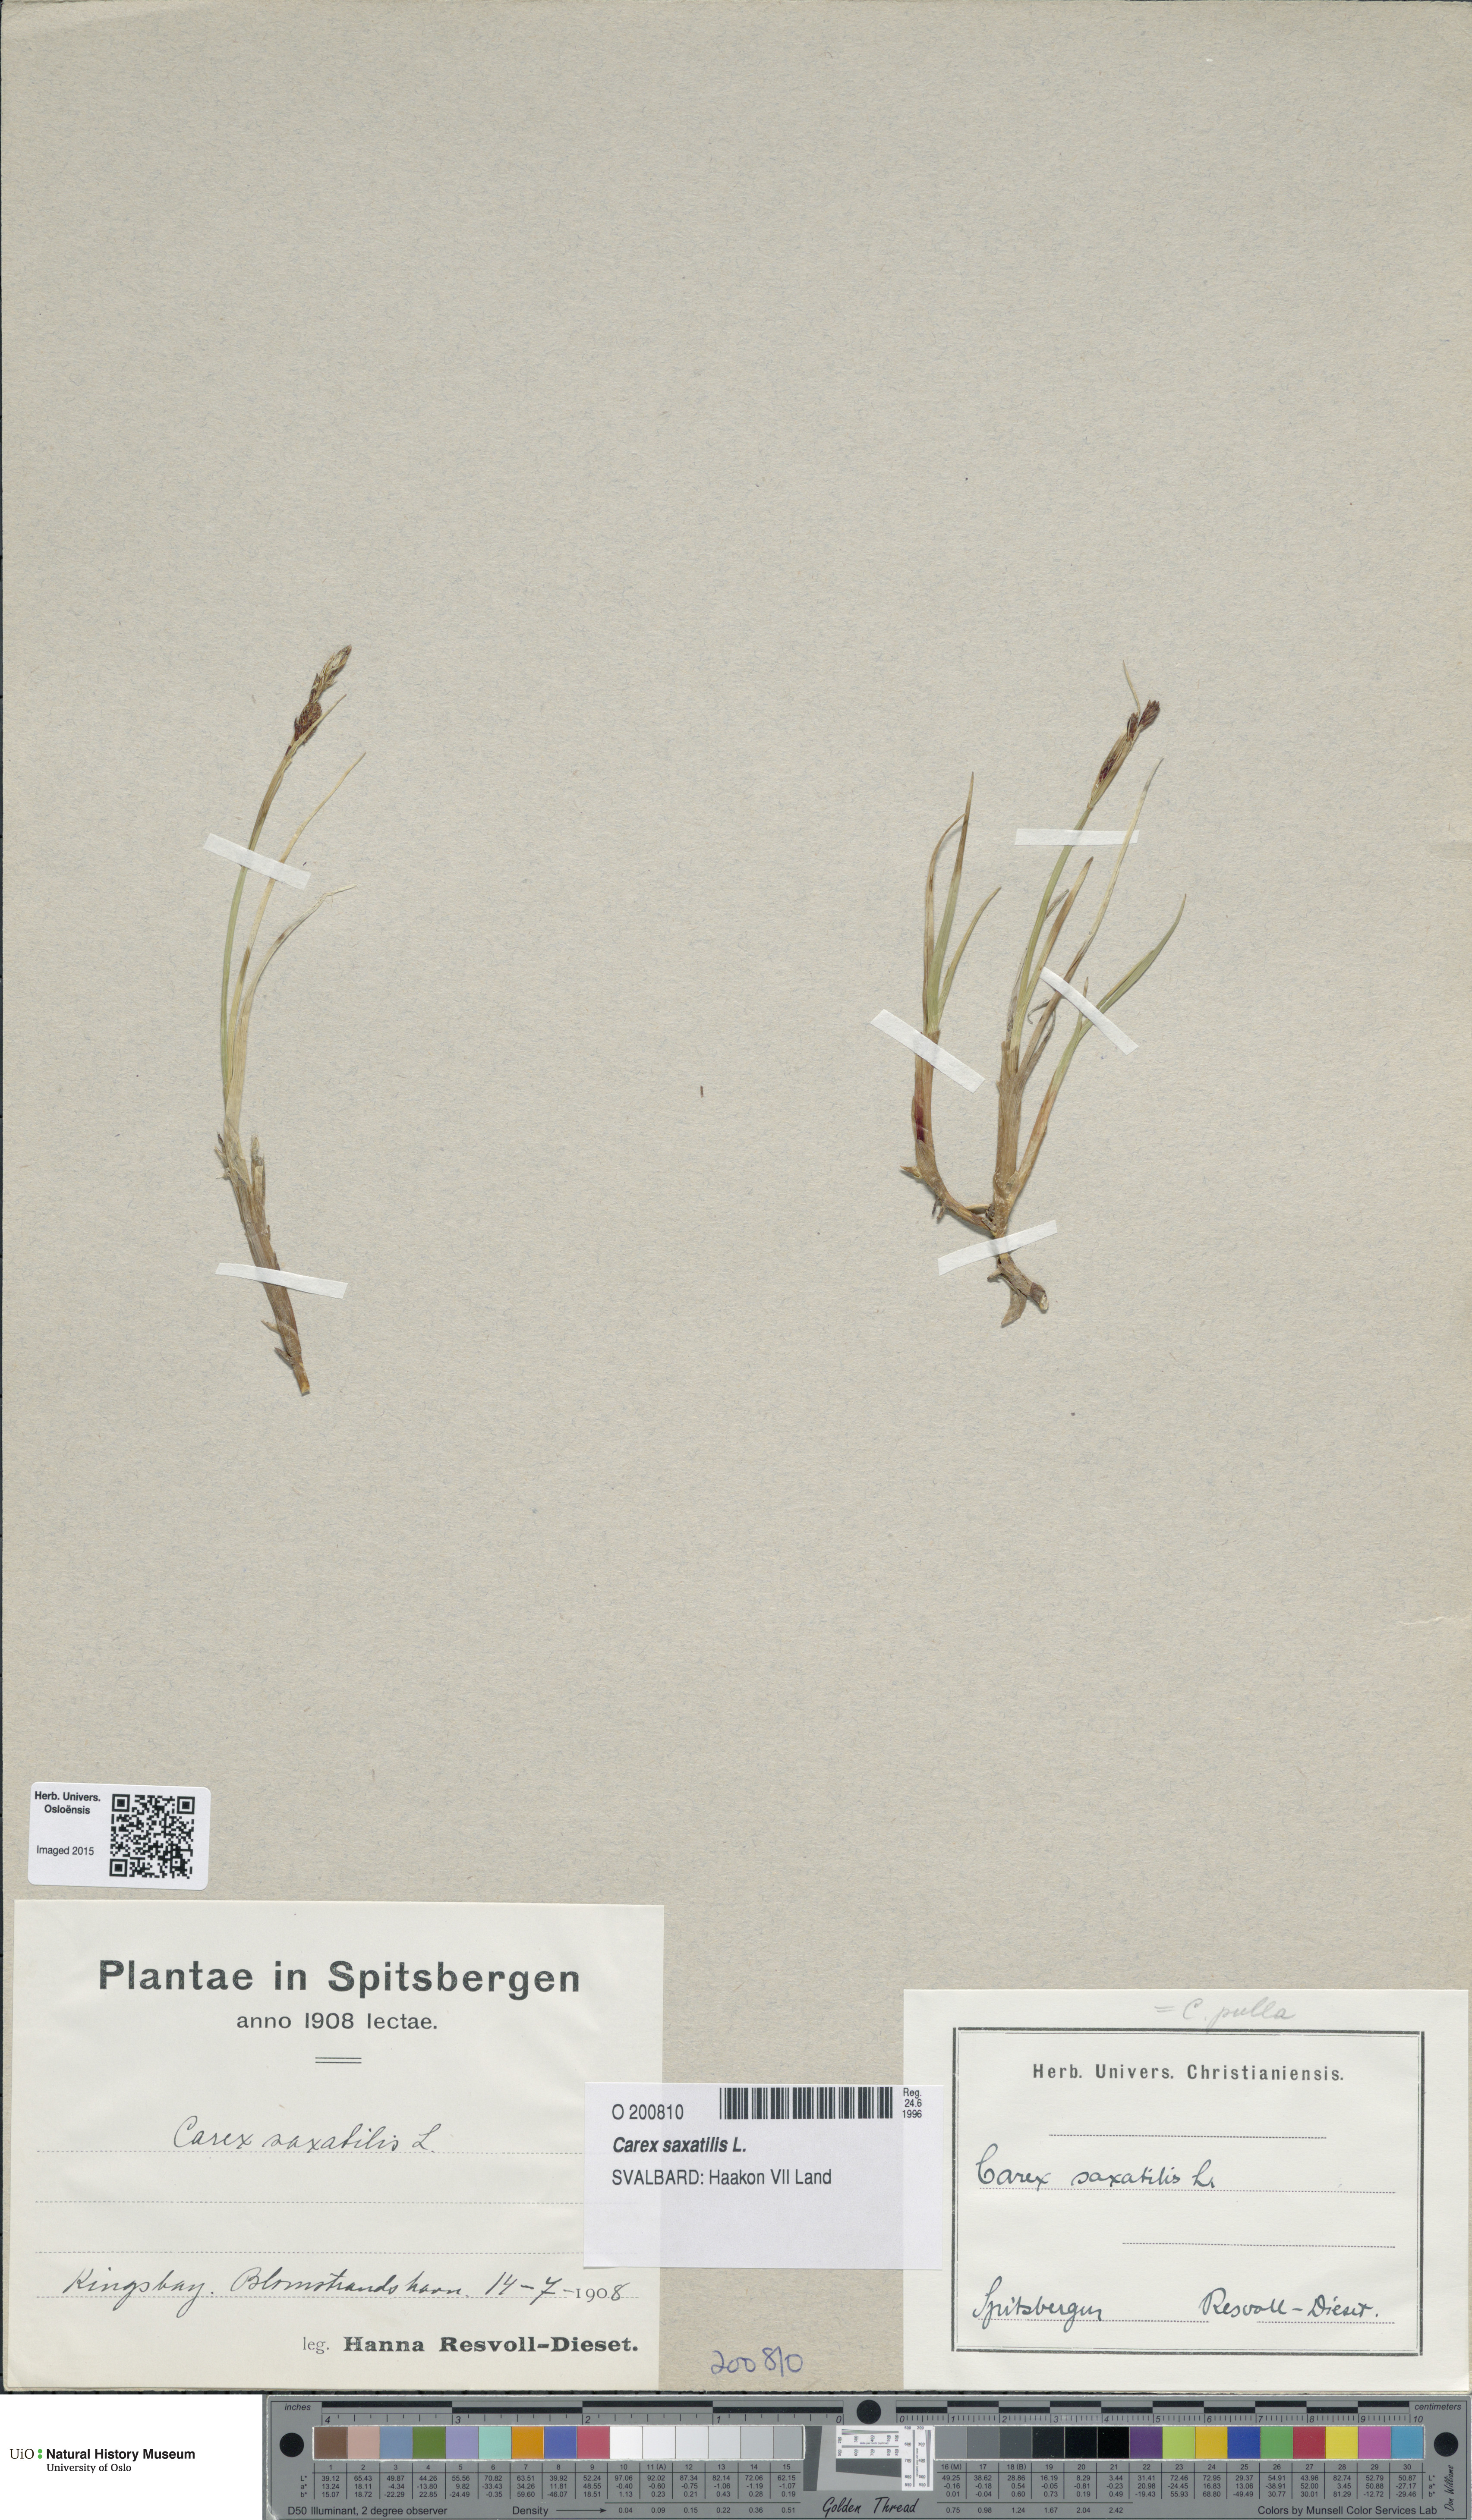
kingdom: Plantae
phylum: Tracheophyta
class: Liliopsida
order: Poales
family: Cyperaceae
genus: Carex
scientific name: Carex saxatilis
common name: Russet sedge
